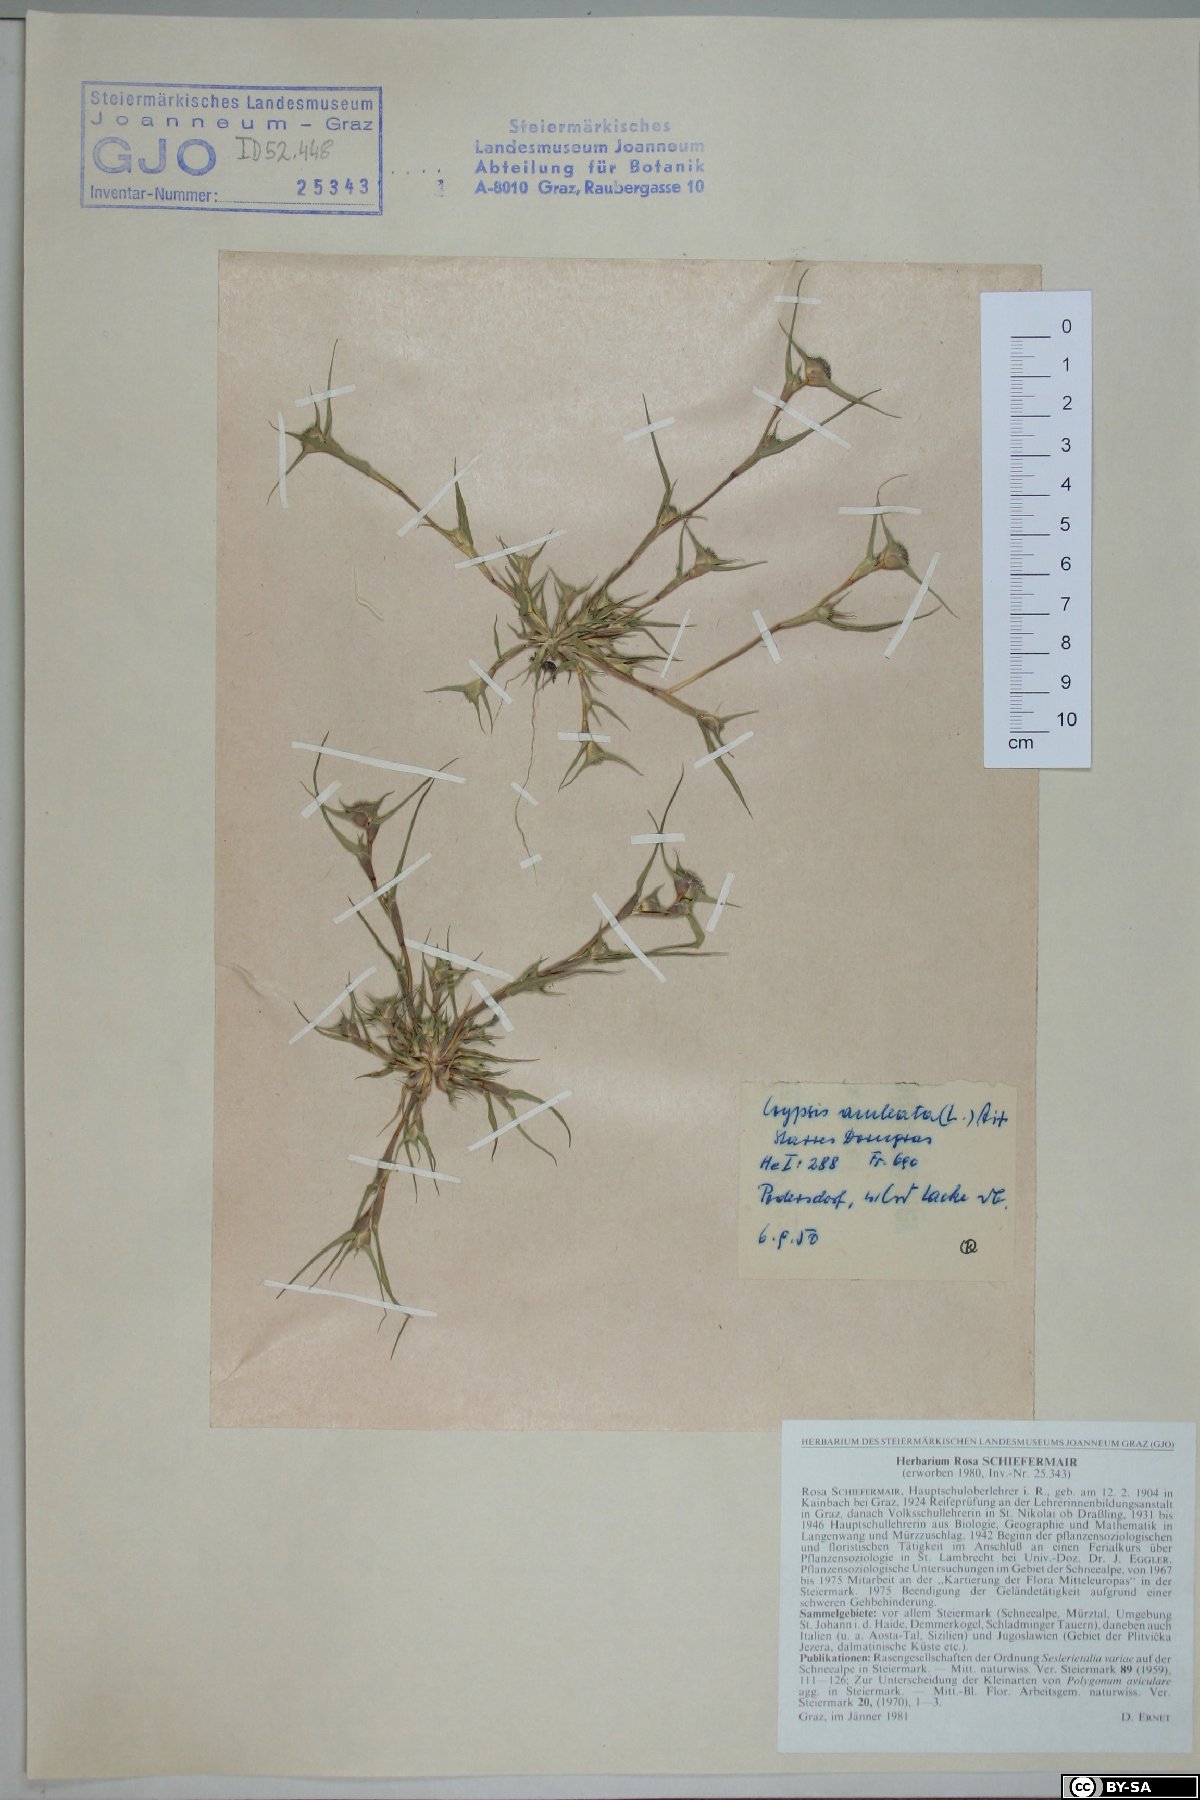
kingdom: Plantae
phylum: Tracheophyta
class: Liliopsida
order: Poales
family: Poaceae
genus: Sporobolus
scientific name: Sporobolus aculeatus
